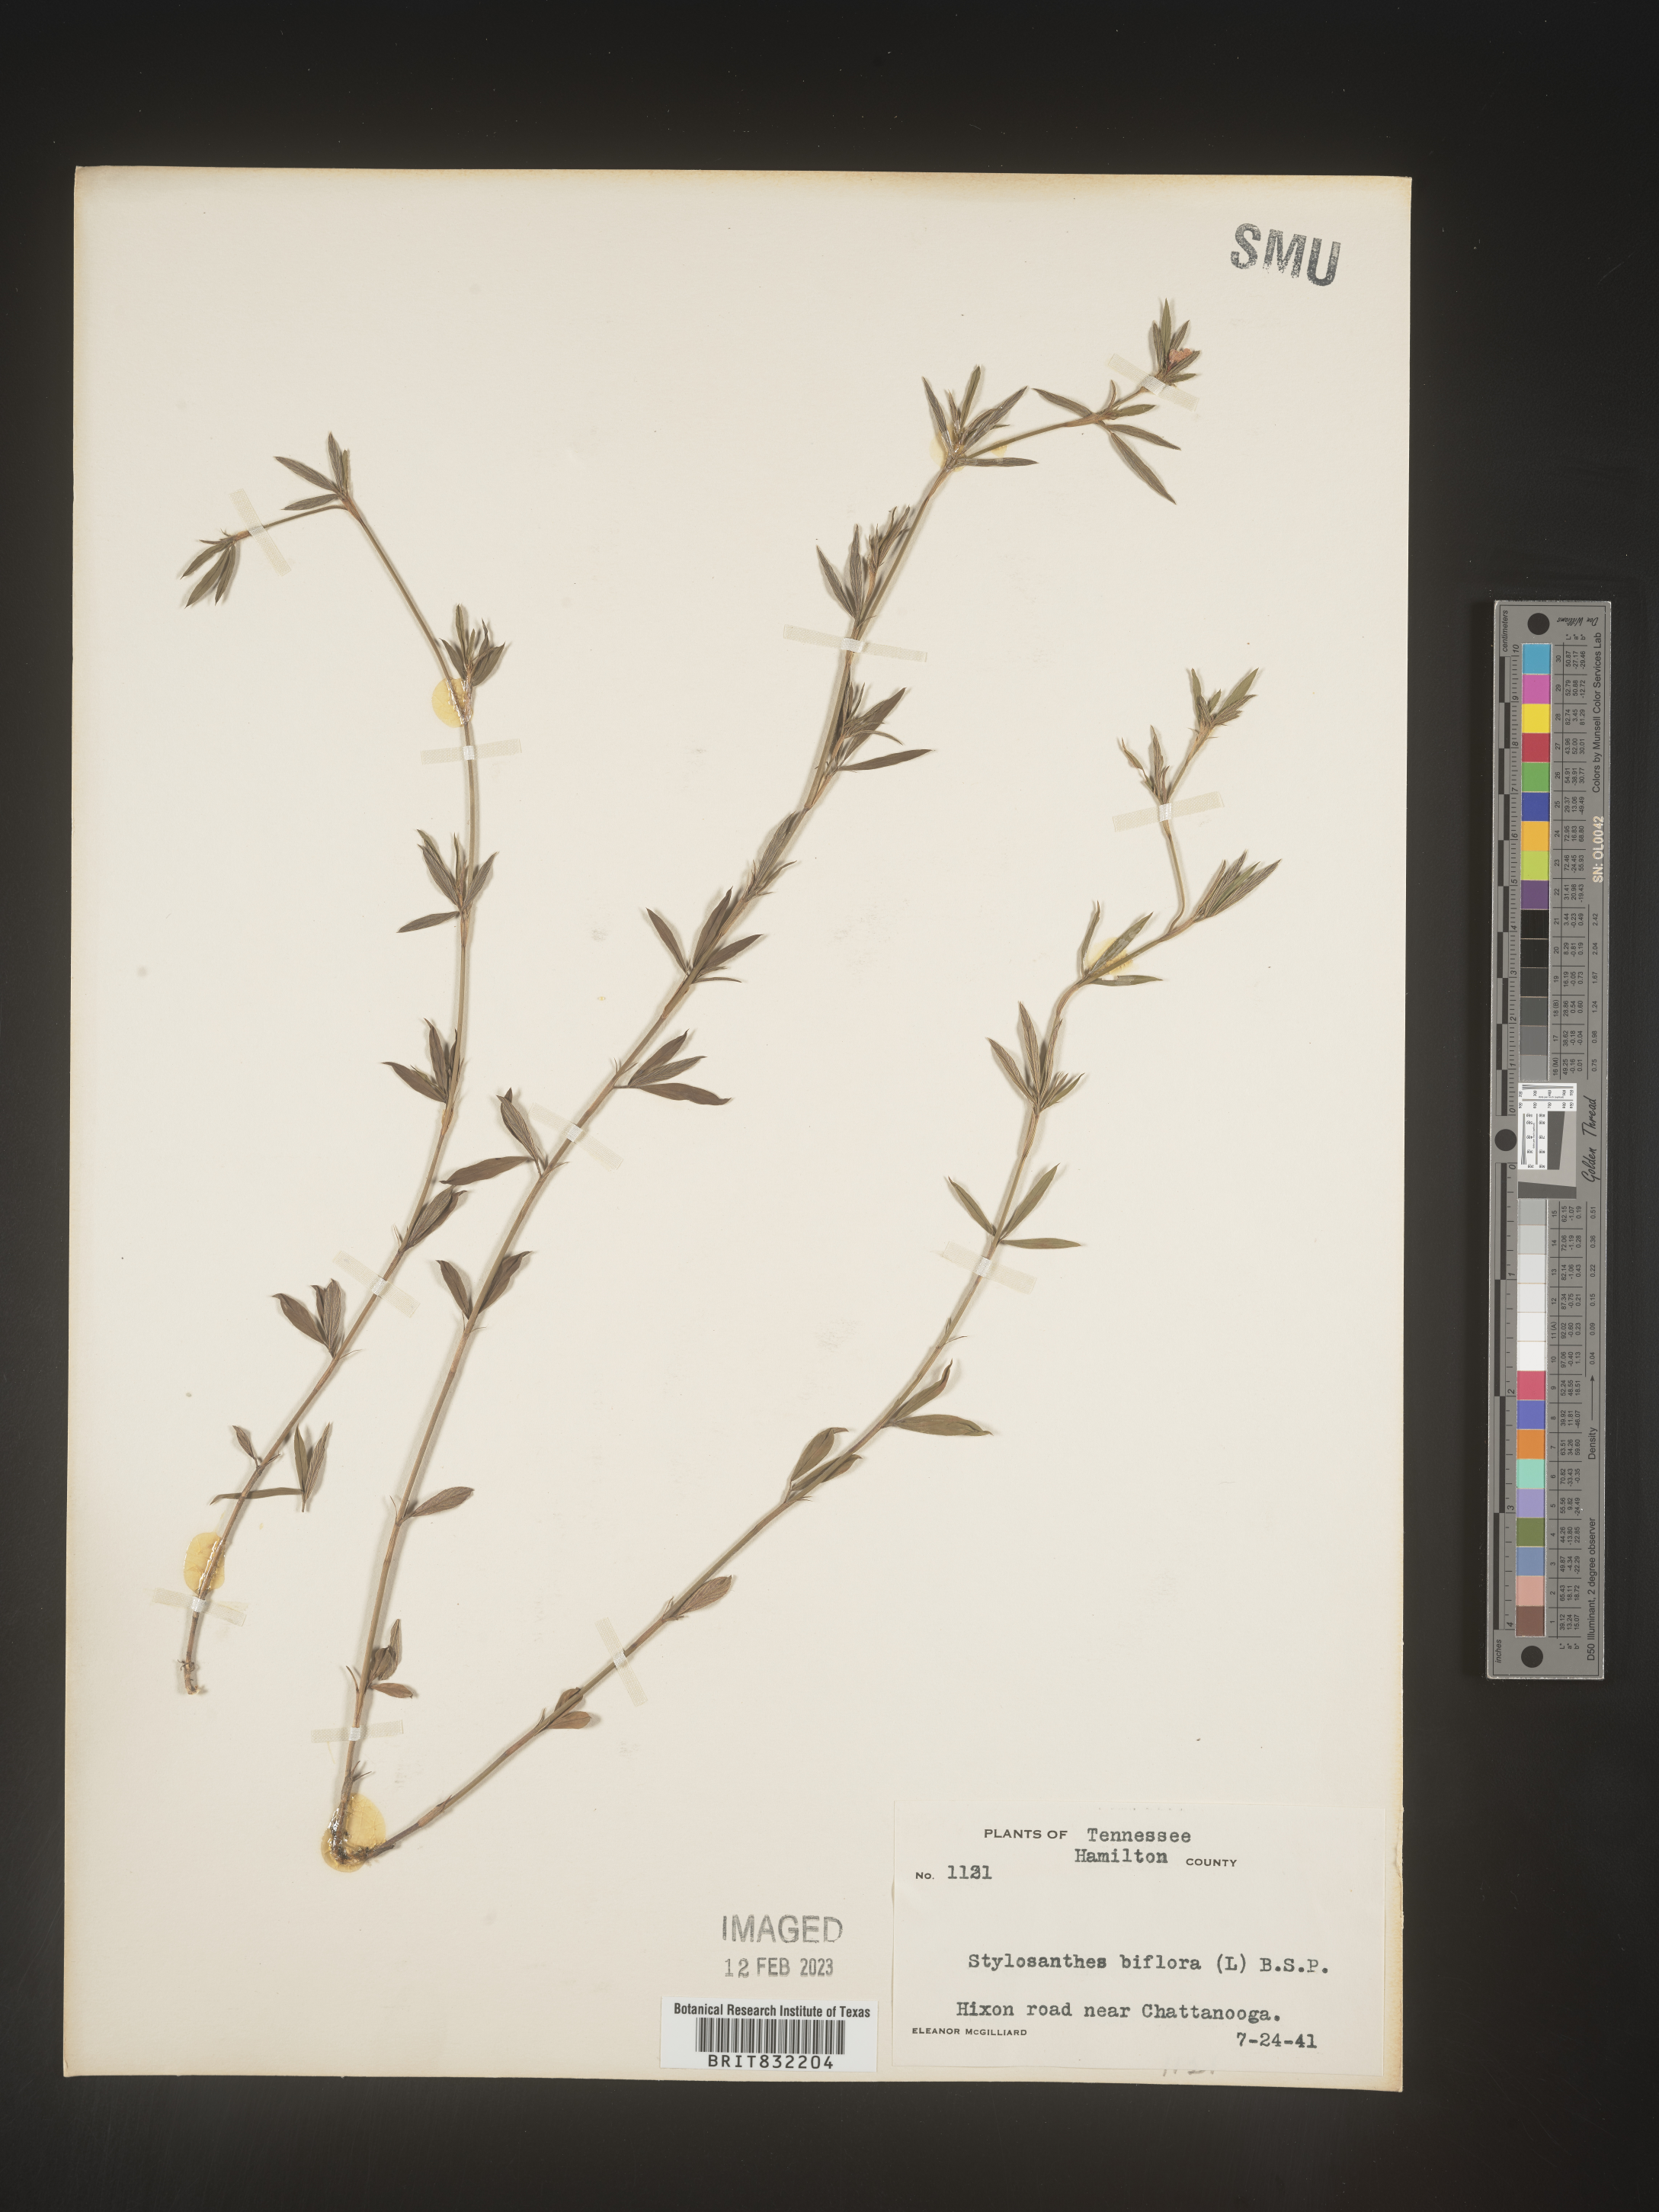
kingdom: Plantae
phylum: Tracheophyta
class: Magnoliopsida
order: Fabales
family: Fabaceae
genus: Stylosanthes
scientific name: Stylosanthes biflora
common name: Two-flower pencil-flower
